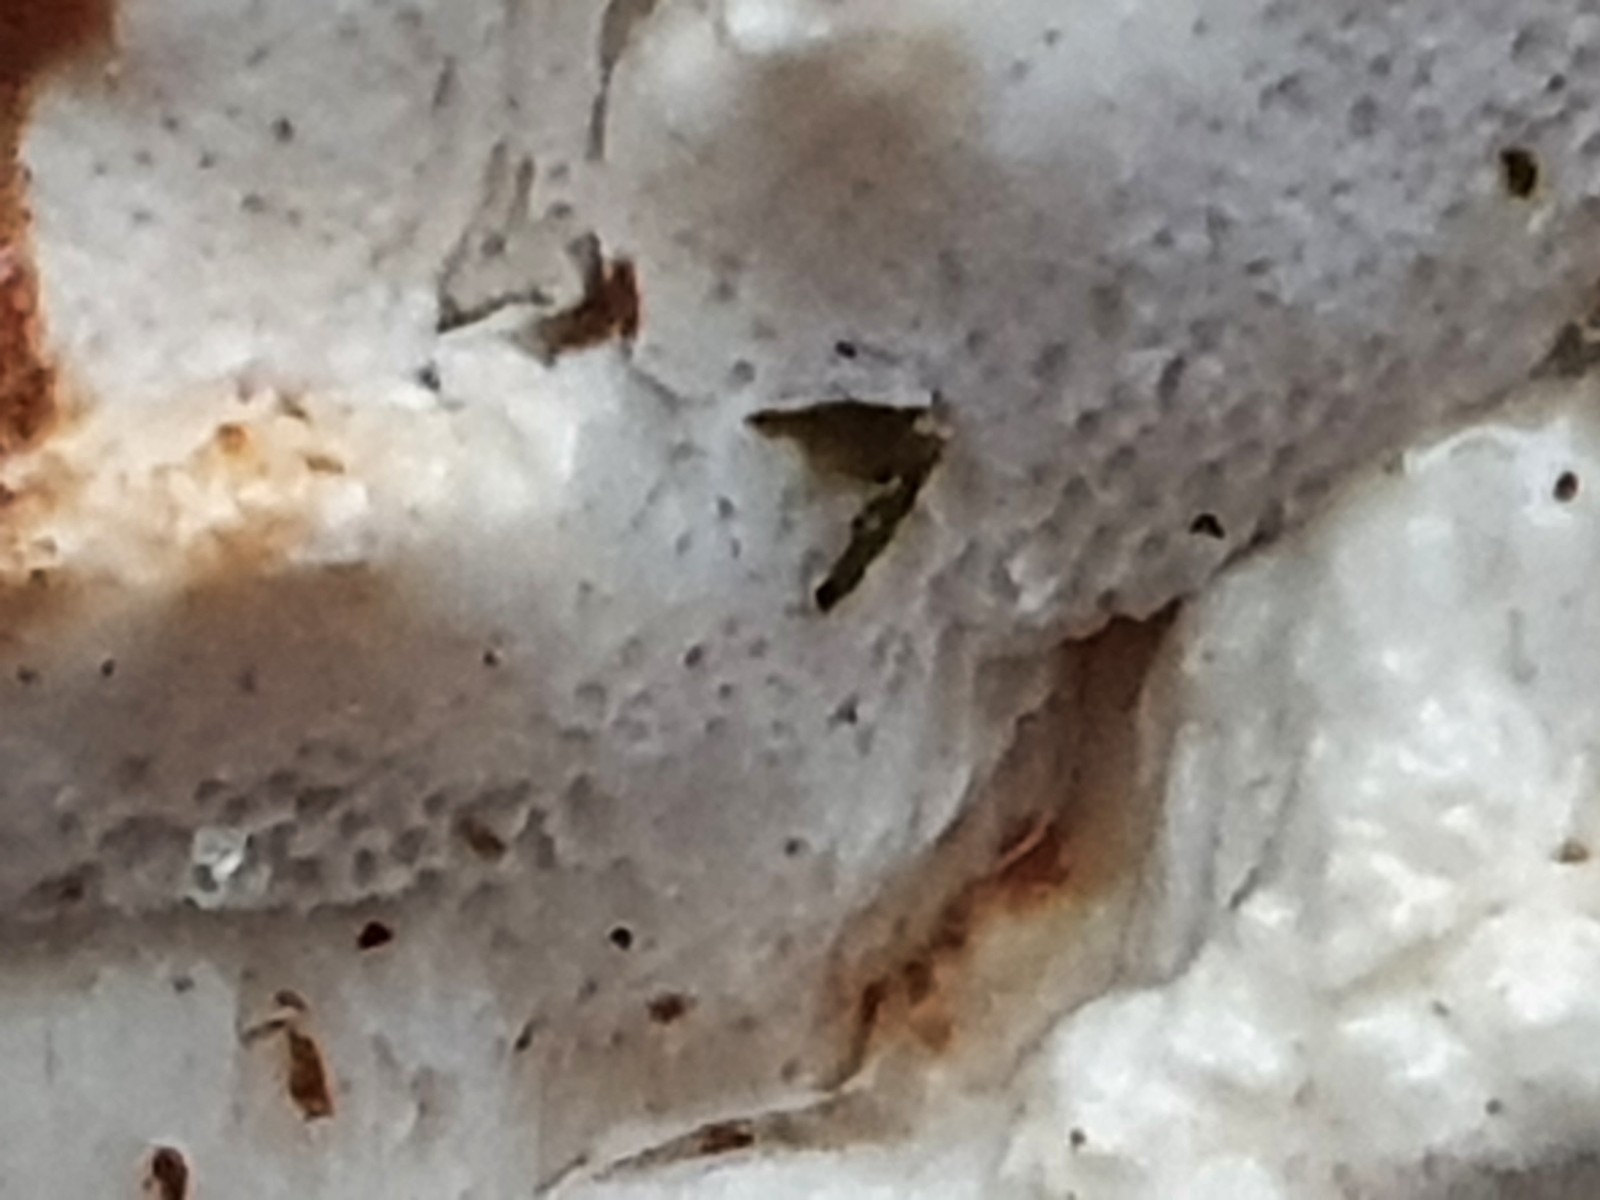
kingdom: Fungi
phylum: Basidiomycota
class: Agaricomycetes
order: Polyporales
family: Fomitopsidaceae
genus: Neoantrodia
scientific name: Neoantrodia serialis
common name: række-sejporesvamp
